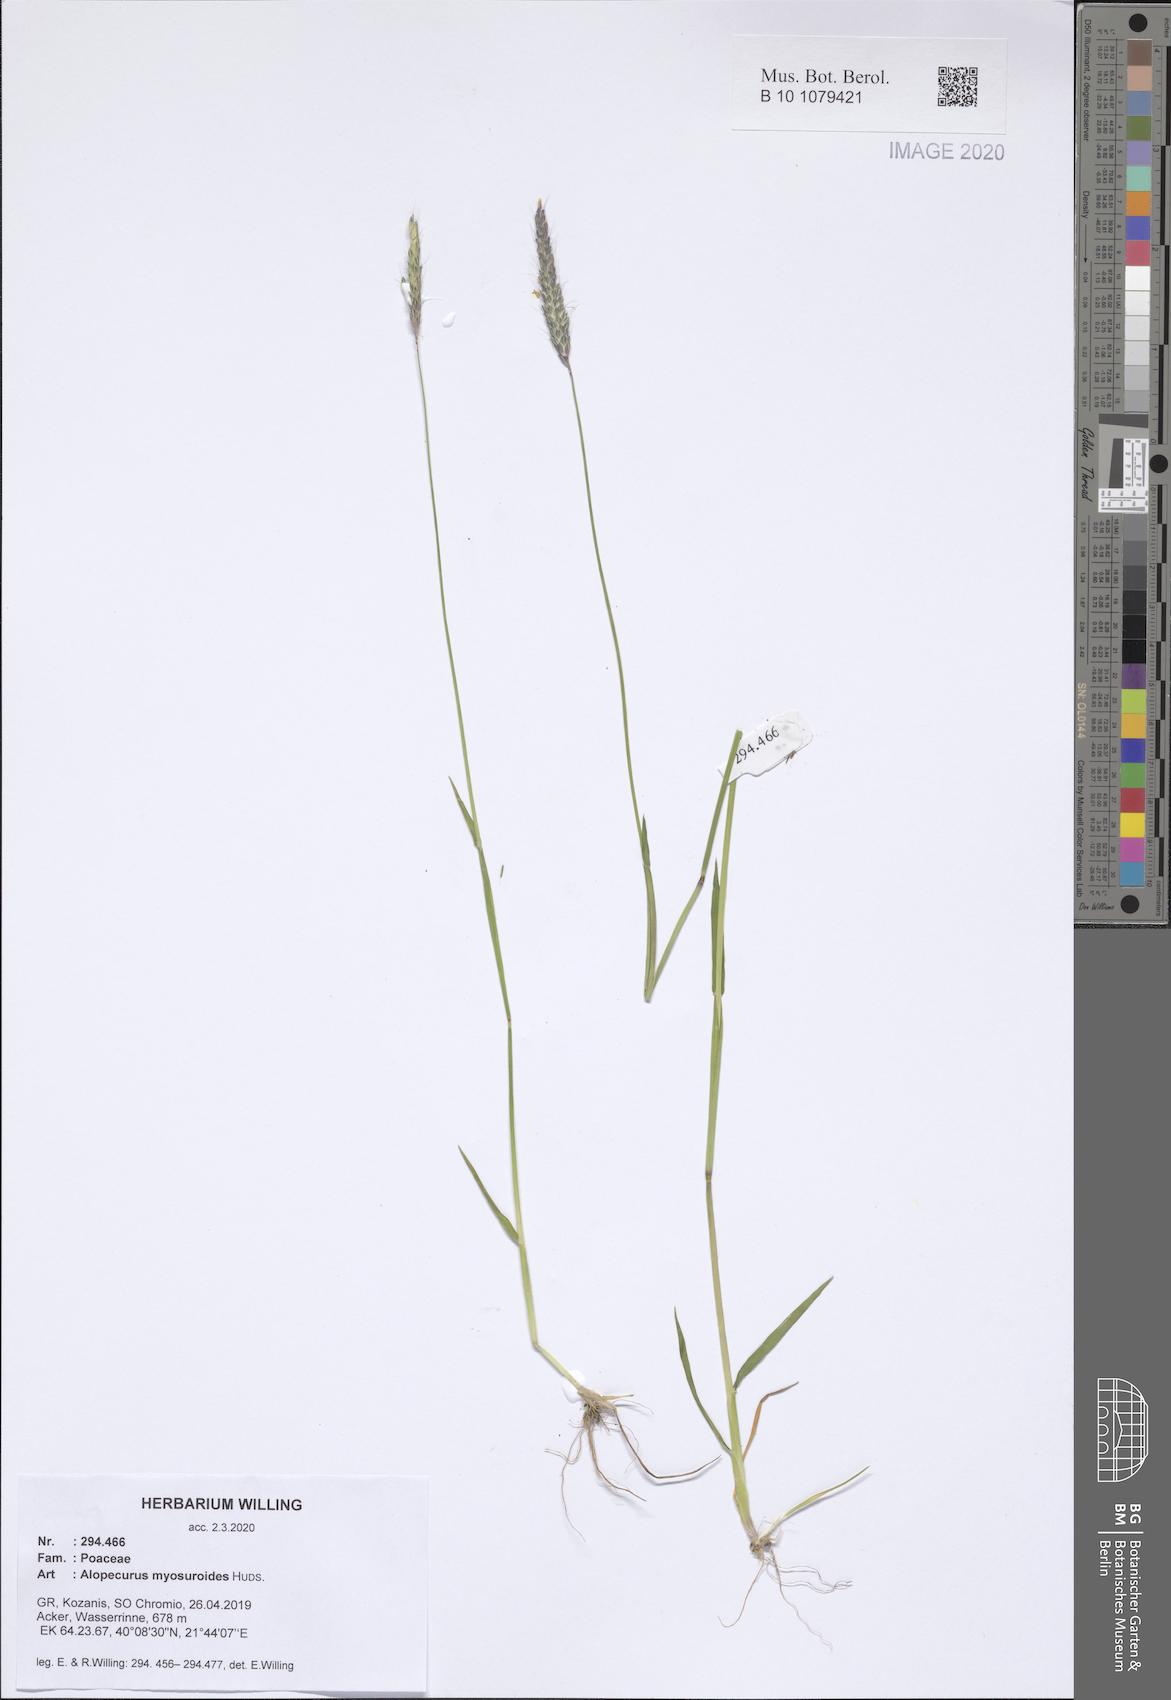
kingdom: Plantae
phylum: Tracheophyta
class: Liliopsida
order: Poales
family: Poaceae
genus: Alopecurus
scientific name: Alopecurus myosuroides
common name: Black-grass
